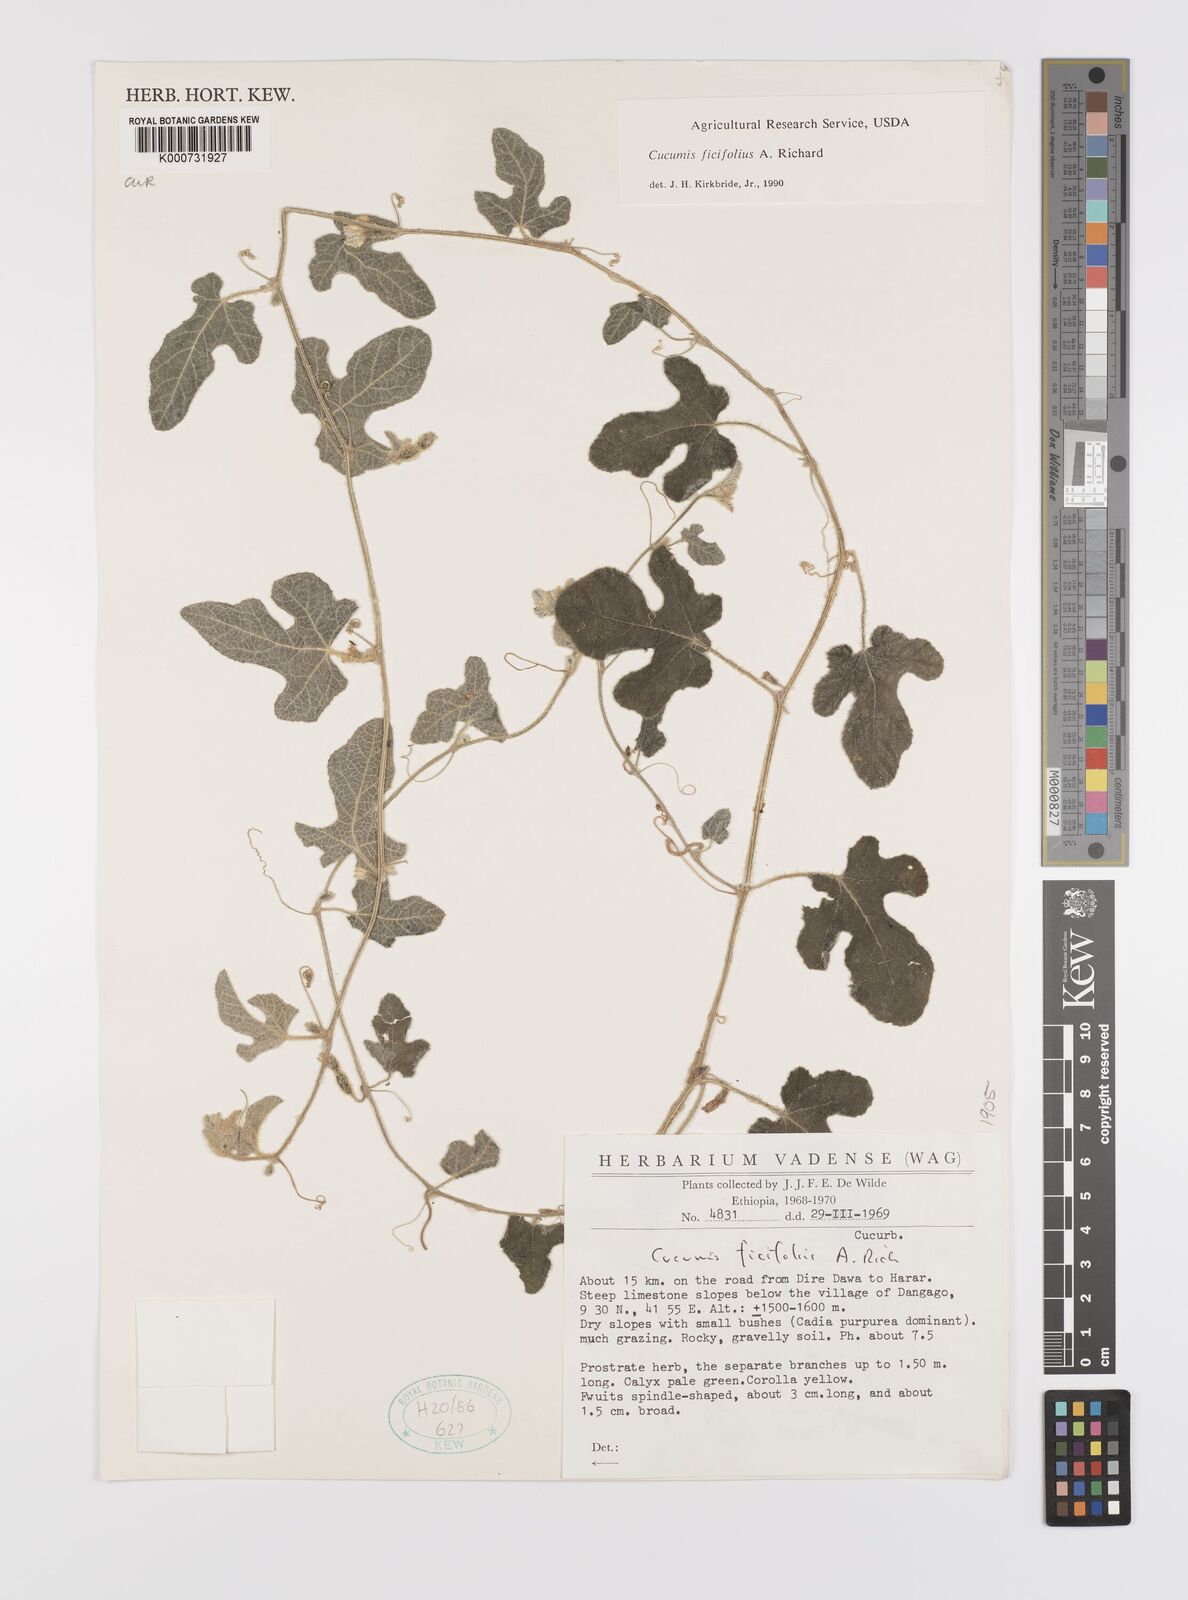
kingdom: Plantae
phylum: Tracheophyta
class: Magnoliopsida
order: Cucurbitales
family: Cucurbitaceae
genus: Cucumis
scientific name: Cucumis ficifolius
